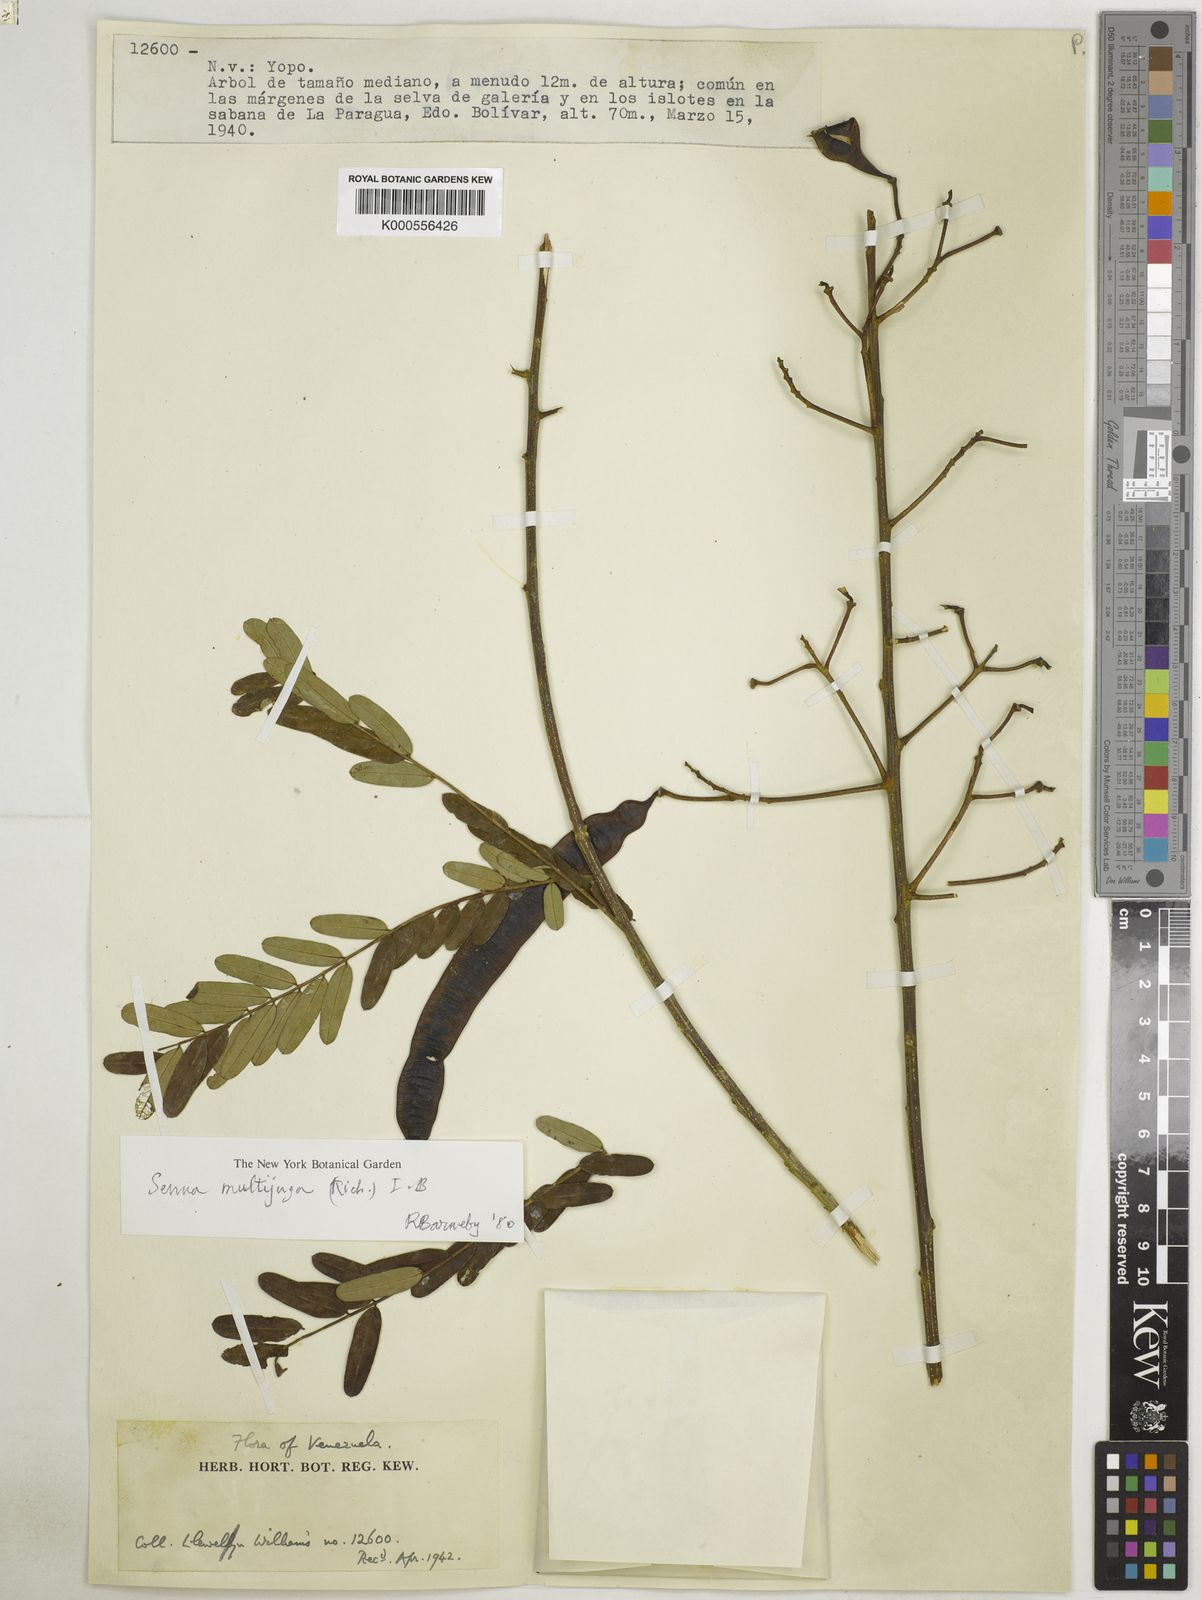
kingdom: Plantae
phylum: Tracheophyta
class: Magnoliopsida
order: Fabales
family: Fabaceae
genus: Senna
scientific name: Senna multijuga
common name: False sicklepod
